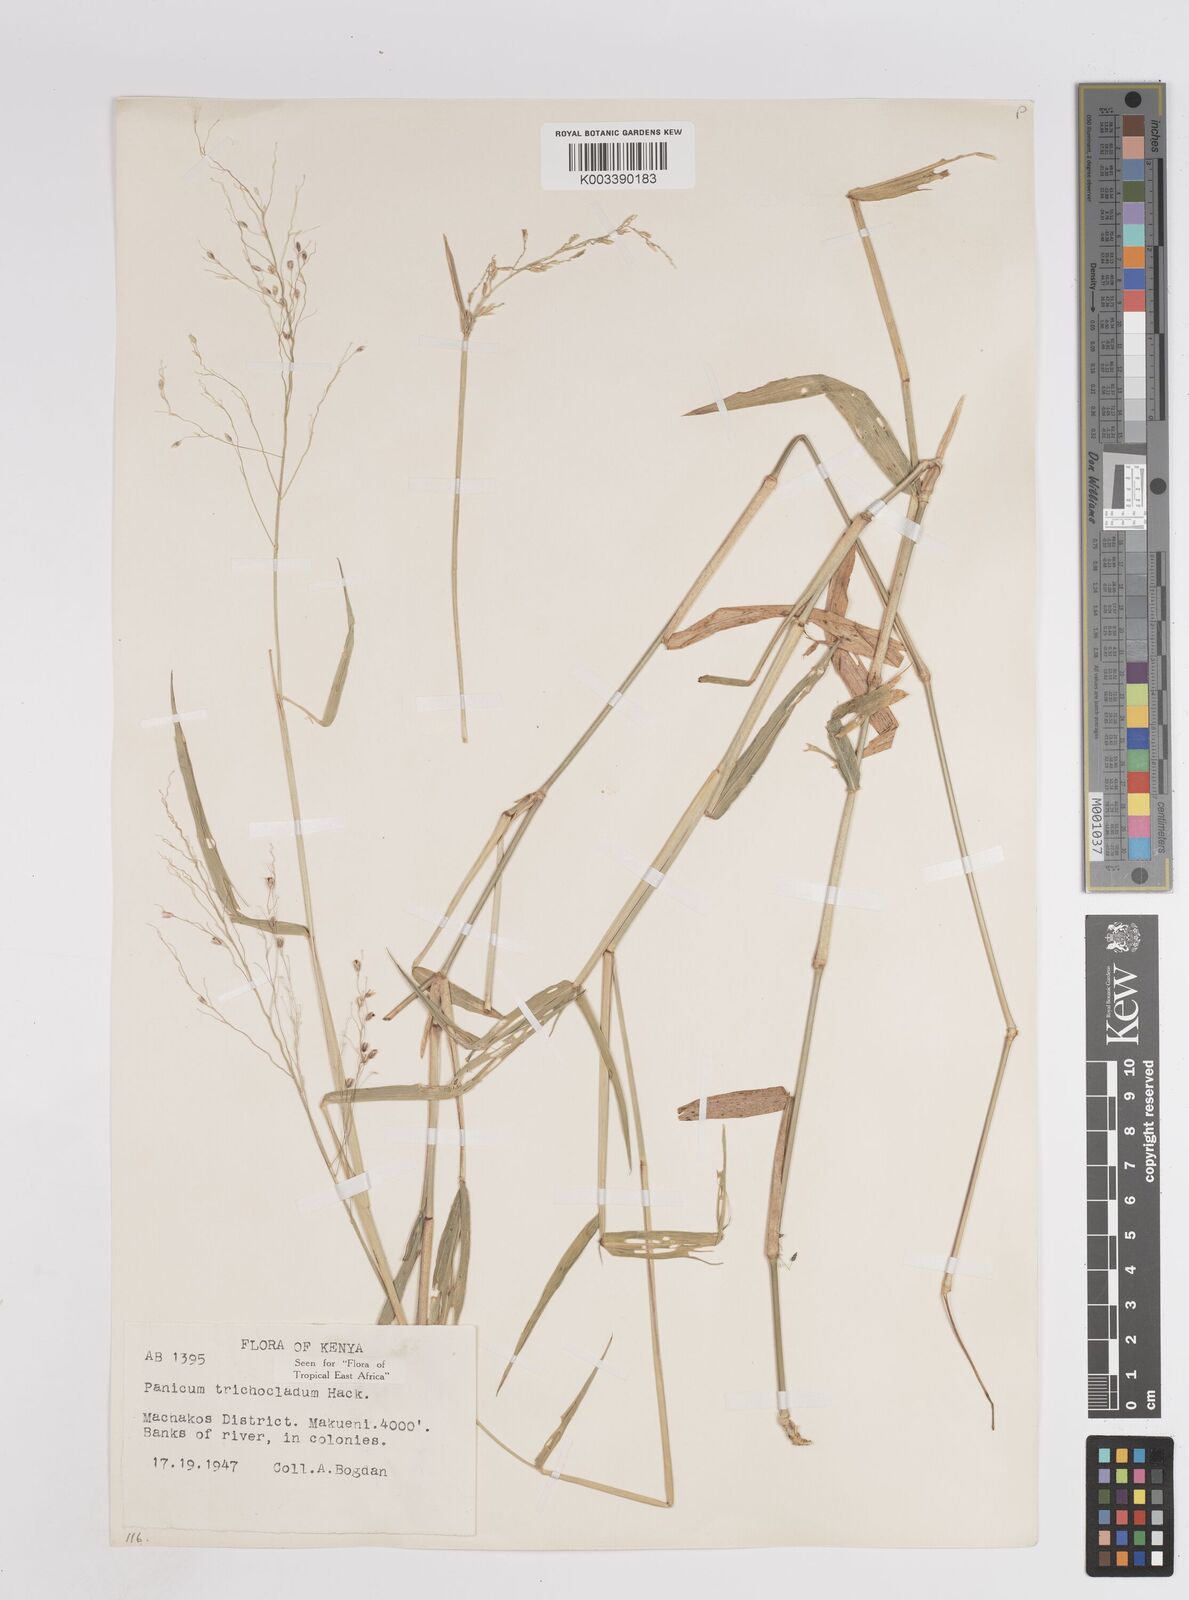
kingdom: Plantae
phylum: Tracheophyta
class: Liliopsida
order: Poales
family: Poaceae
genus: Panicum
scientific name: Panicum trichocladum
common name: Donkey grass
